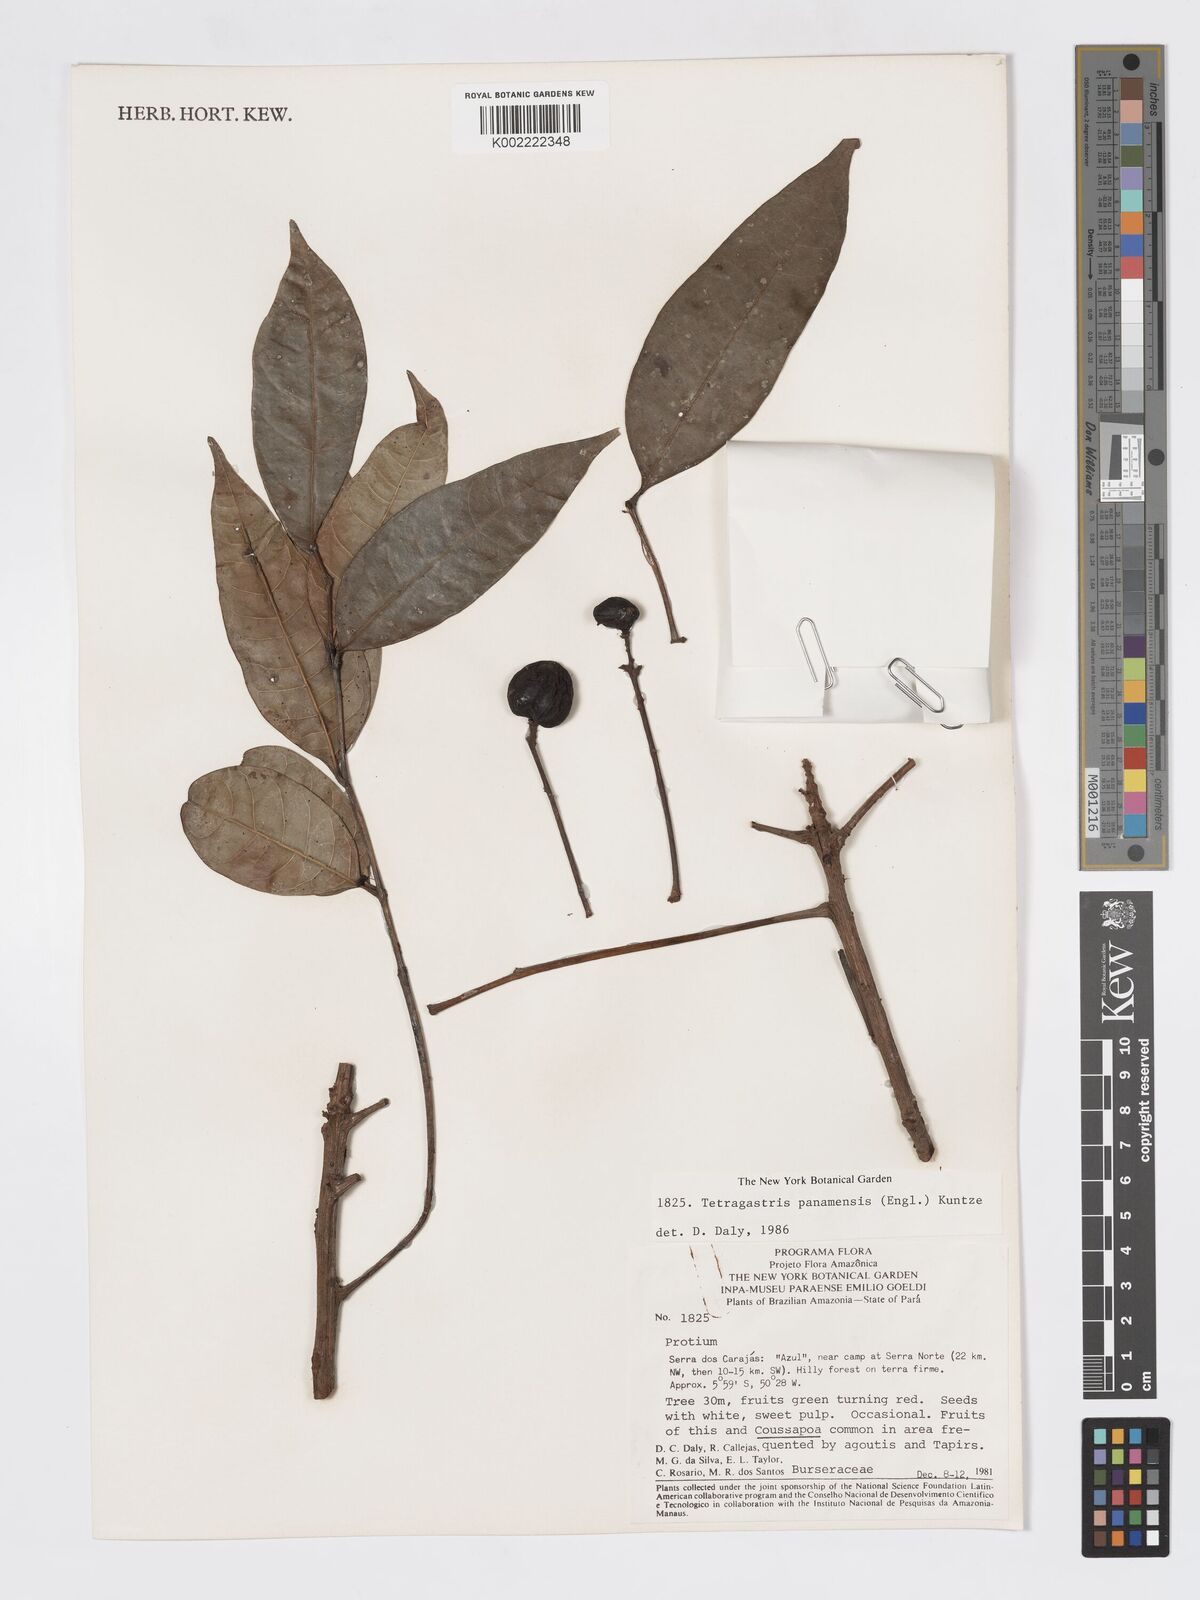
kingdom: Plantae
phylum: Tracheophyta
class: Magnoliopsida
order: Sapindales
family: Burseraceae
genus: Tetragastris
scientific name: Tetragastris panamensis
